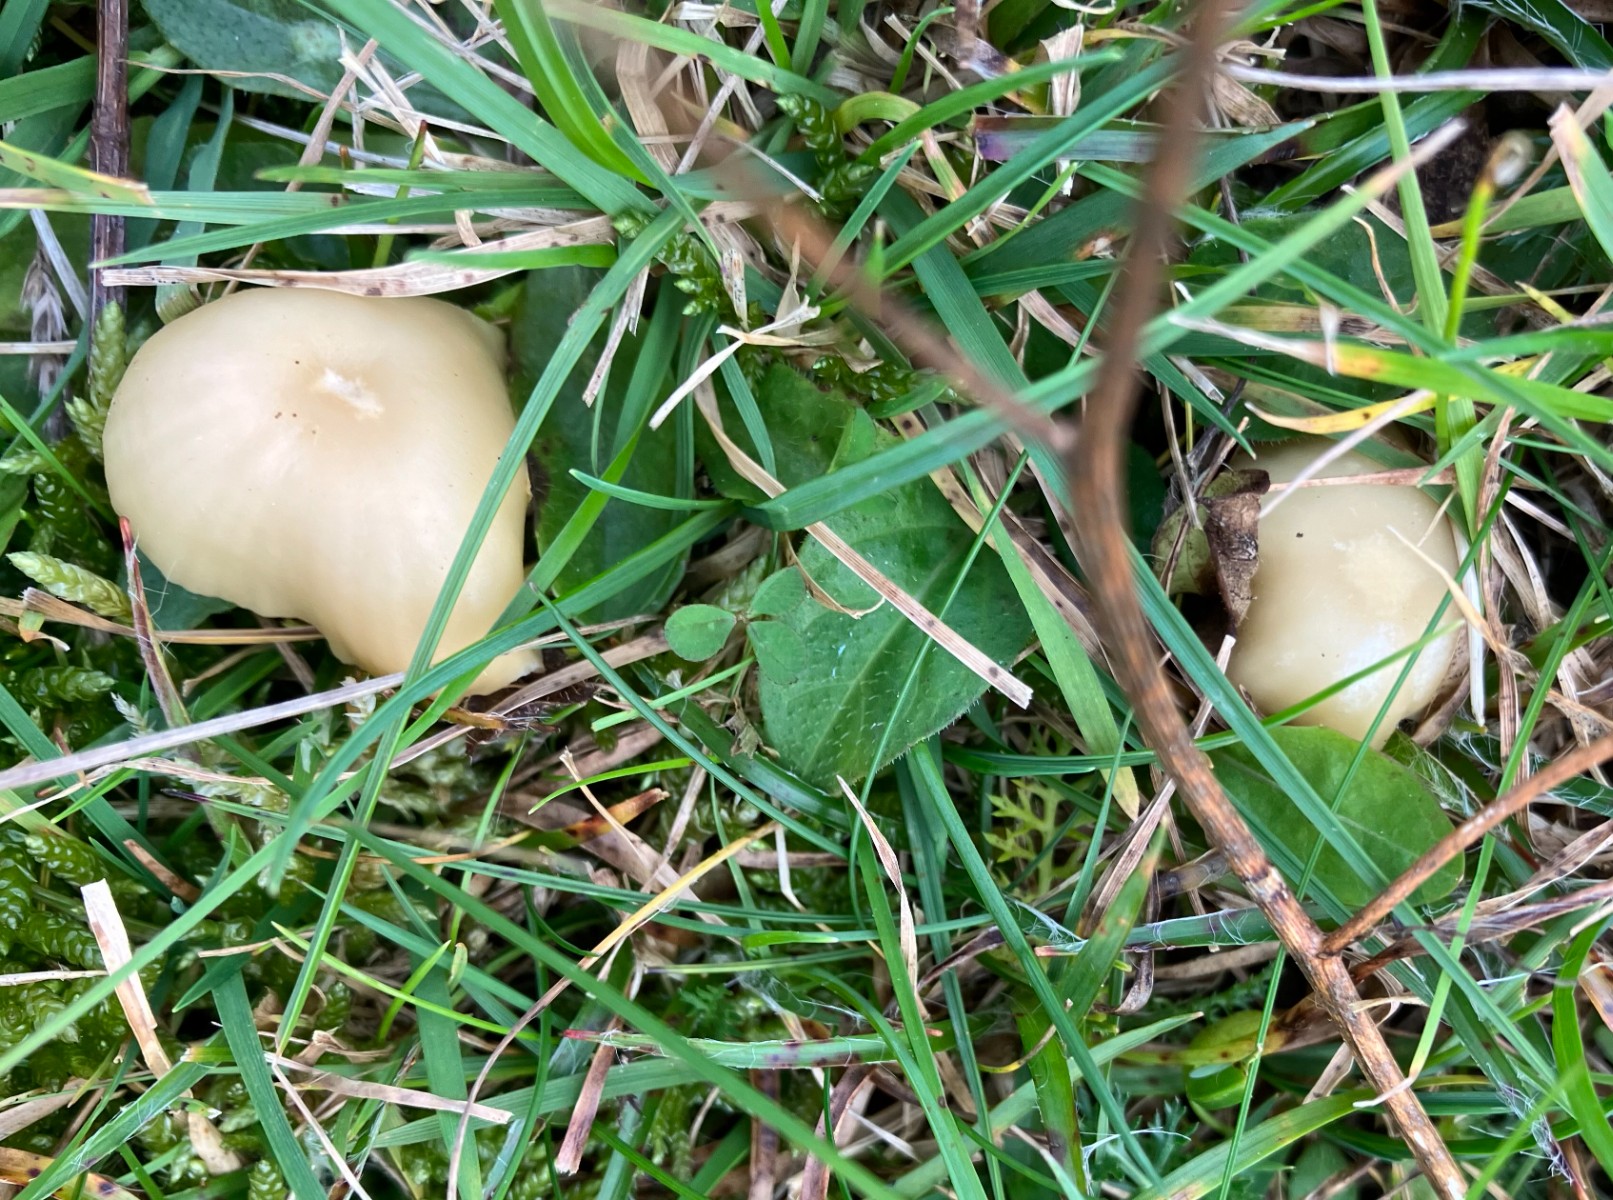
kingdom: Fungi
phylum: Basidiomycota
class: Agaricomycetes
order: Agaricales
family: Hygrophoraceae
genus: Cuphophyllus
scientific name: Cuphophyllus russocoriaceus
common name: ruslæder-vokshat
